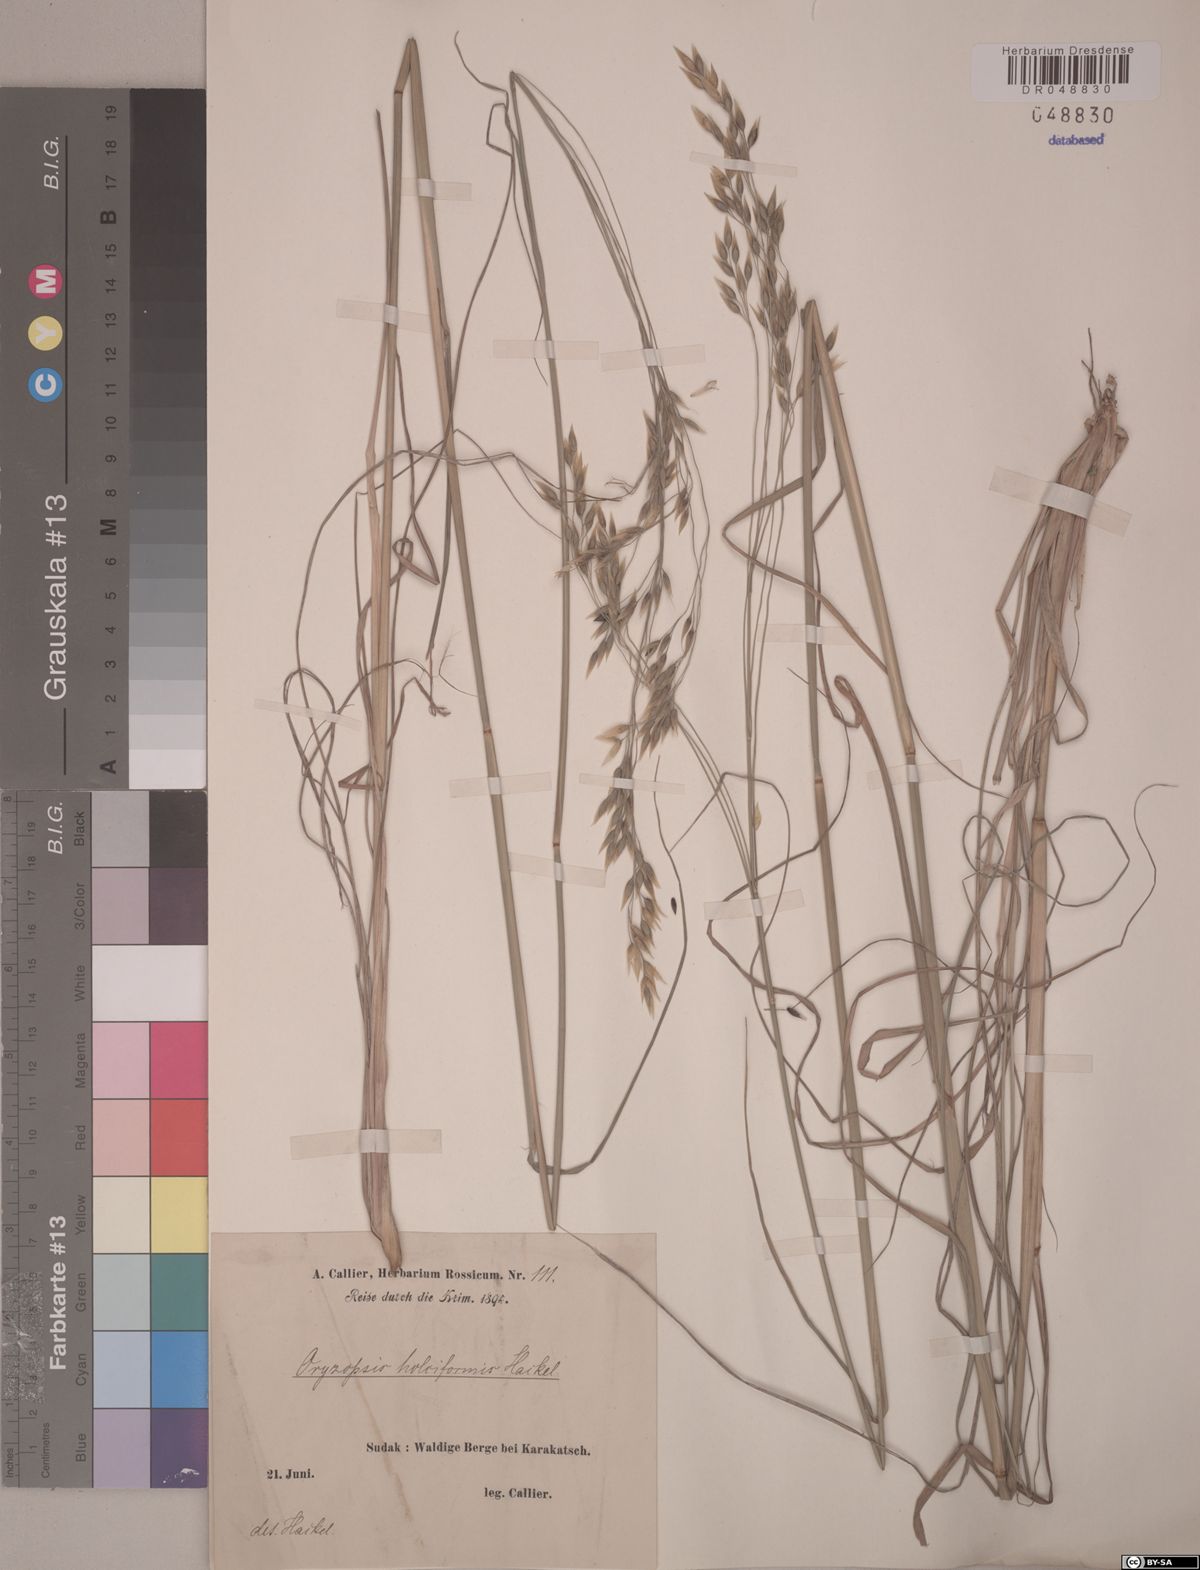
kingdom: Plantae
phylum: Tracheophyta
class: Liliopsida
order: Poales
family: Poaceae
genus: Piptatherum
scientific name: Piptatherum holciforme
